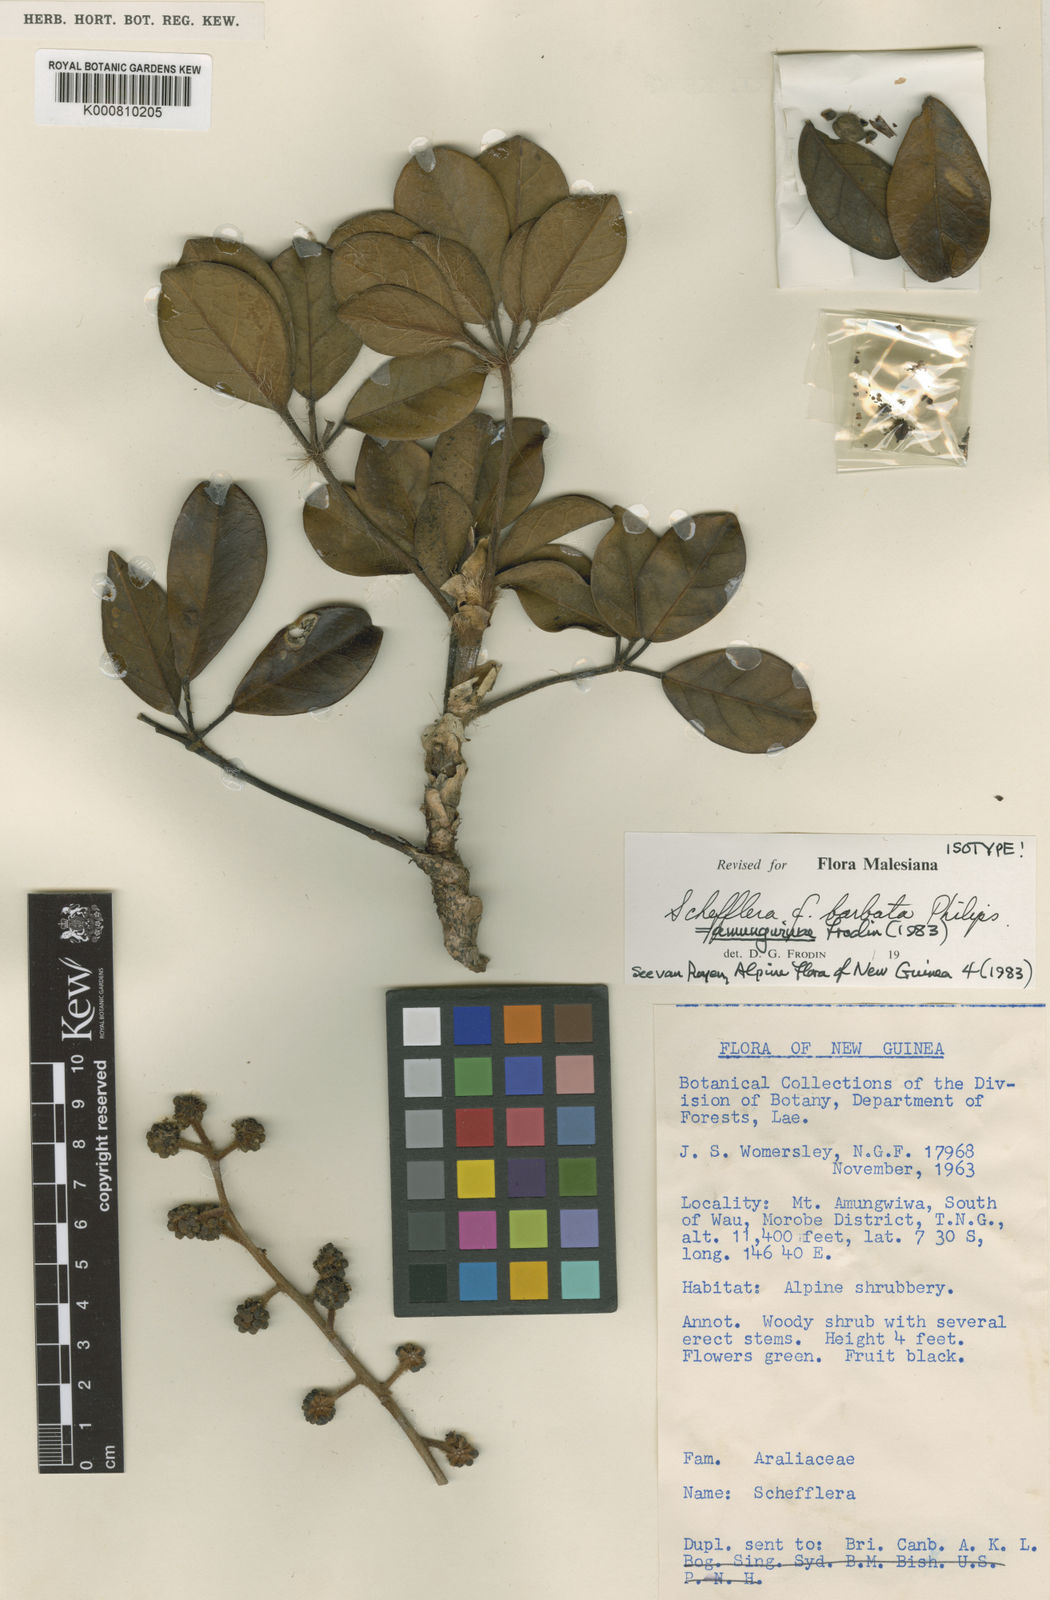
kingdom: Plantae
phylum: Tracheophyta
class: Magnoliopsida
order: Apiales
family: Araliaceae
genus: Heptapleurum
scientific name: Heptapleurum amungwiwae
